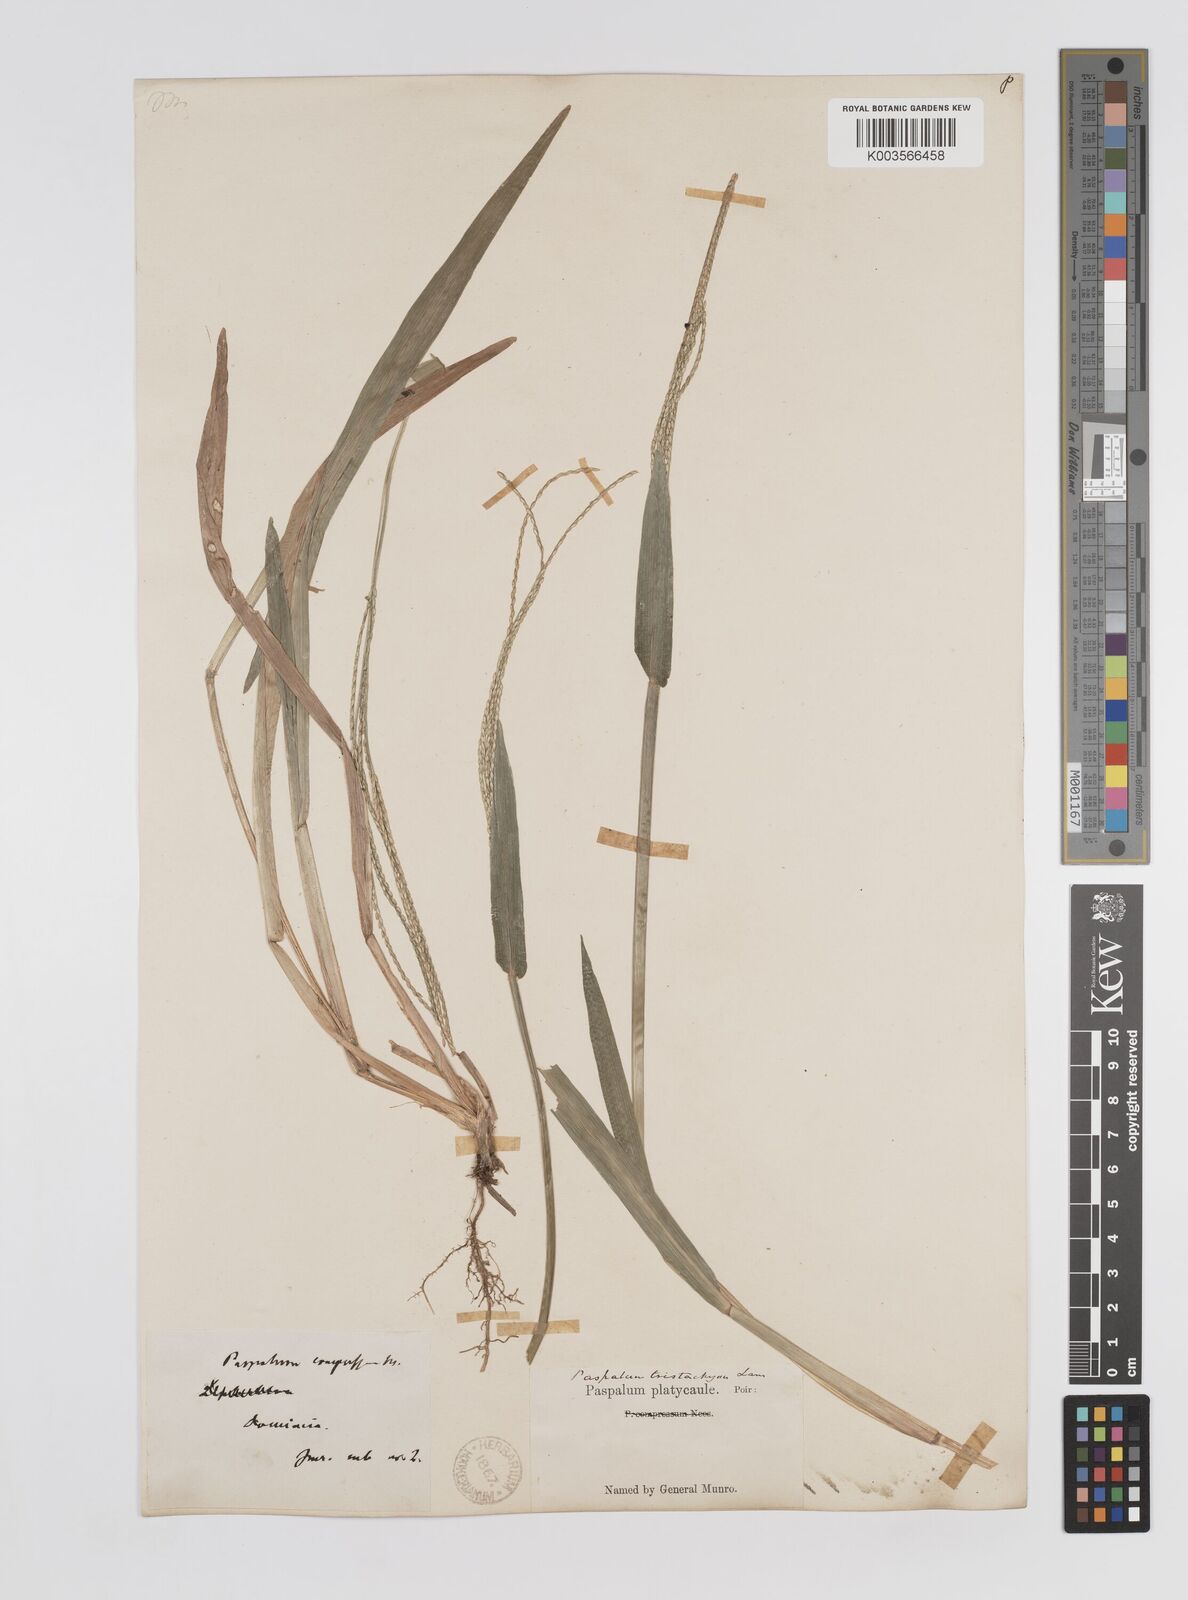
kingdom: Plantae
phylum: Tracheophyta
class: Liliopsida
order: Poales
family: Poaceae
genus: Axonopus
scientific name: Axonopus compressus
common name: American carpet grass
